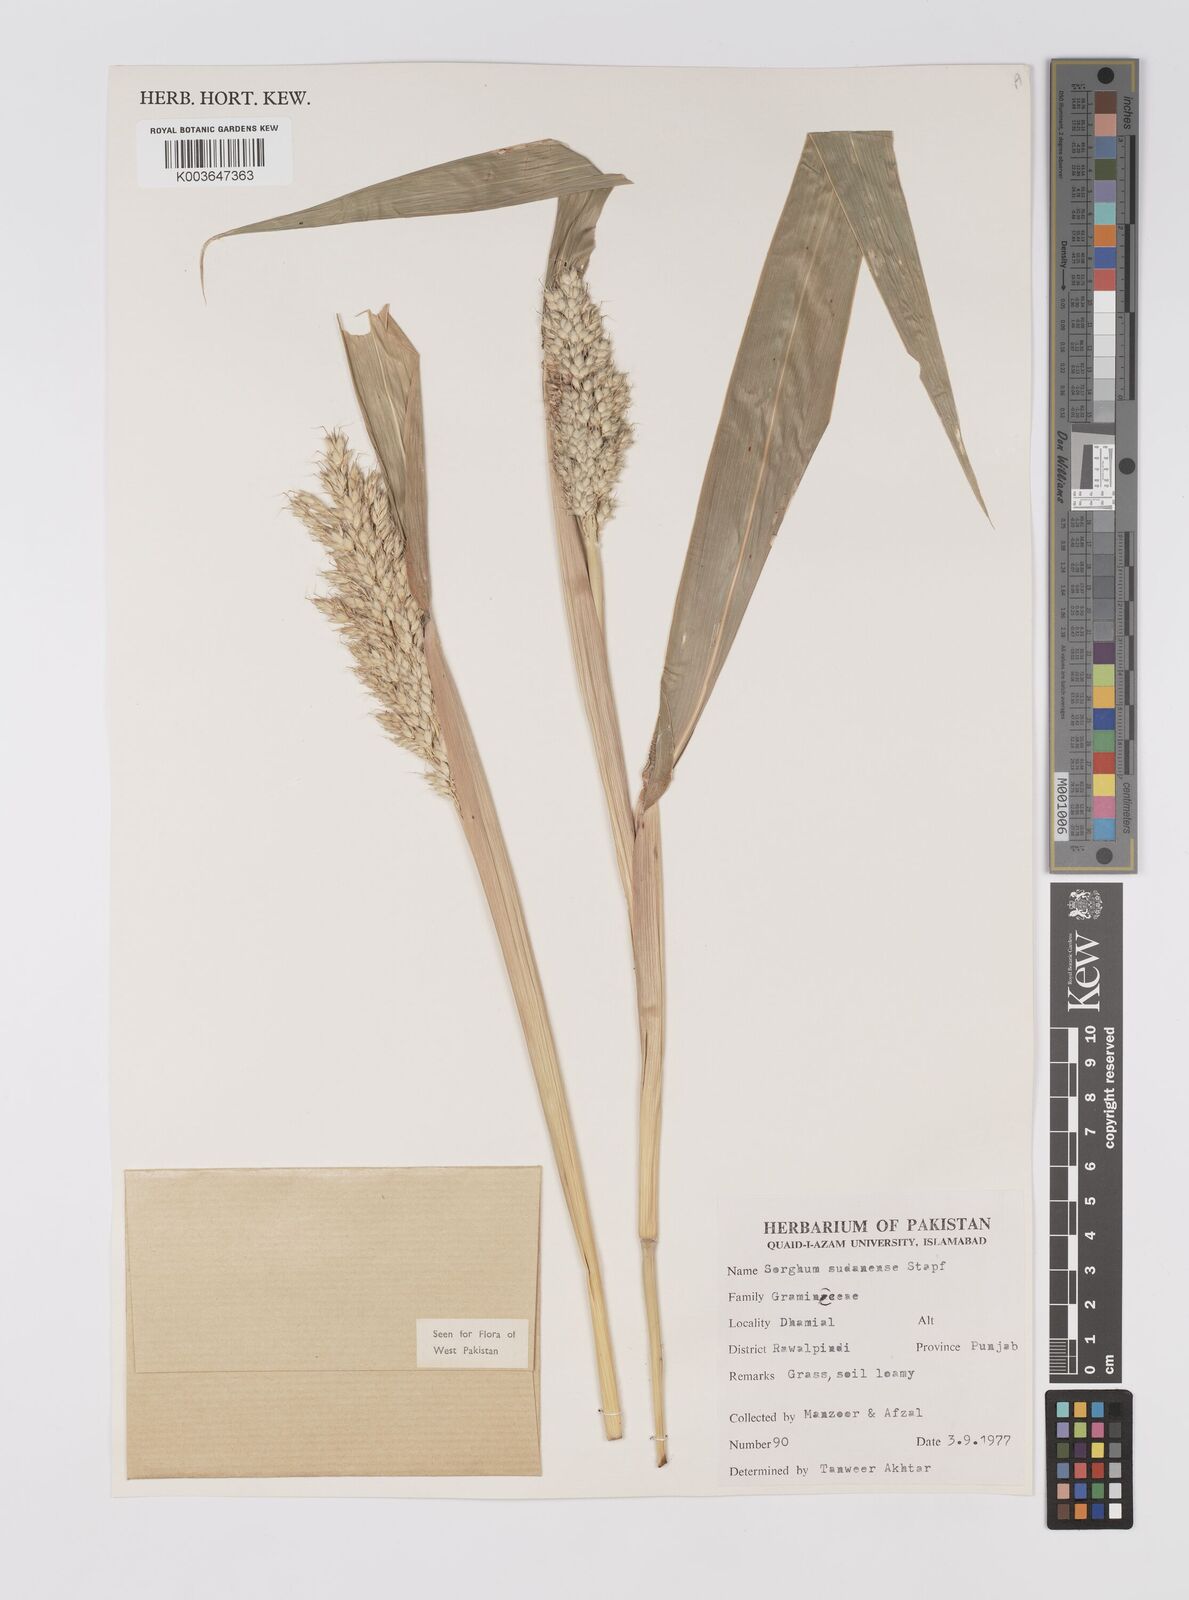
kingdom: Plantae
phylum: Tracheophyta
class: Liliopsida
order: Poales
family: Poaceae
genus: Sorghum
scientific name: Sorghum drummondii
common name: Sudangrass
